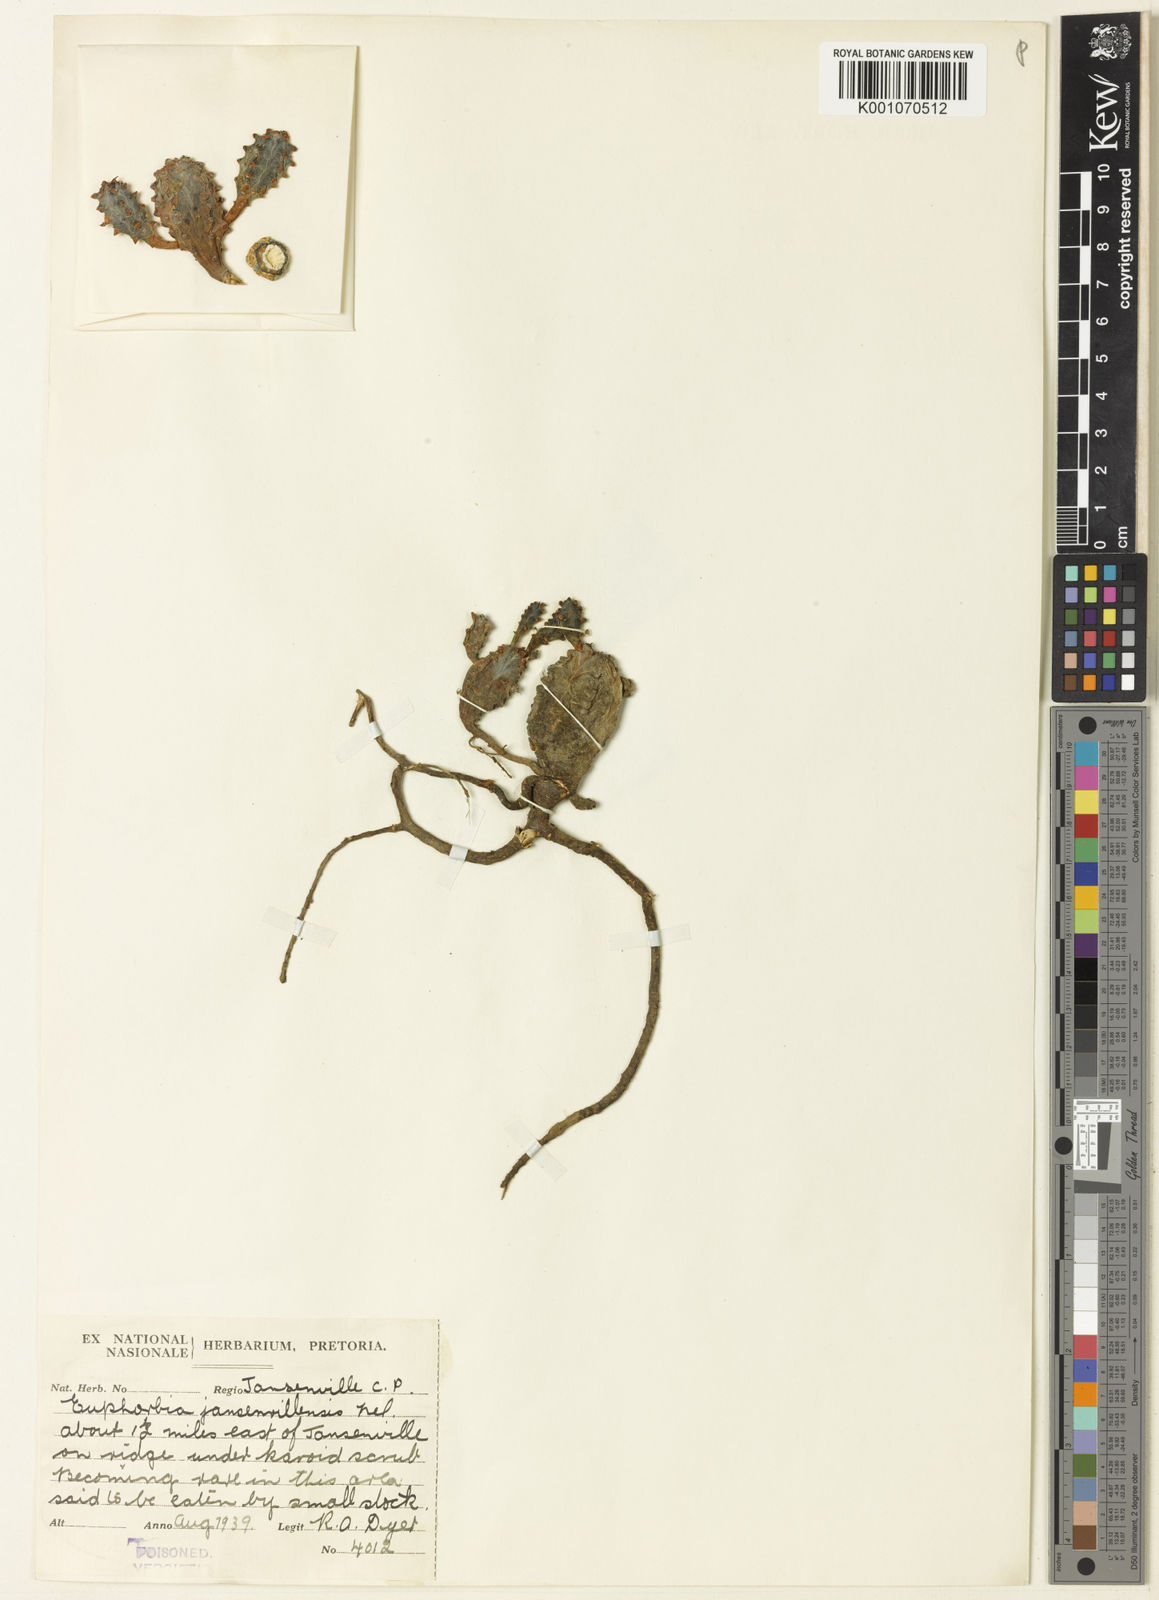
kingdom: Plantae
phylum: Tracheophyta
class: Magnoliopsida
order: Malpighiales
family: Euphorbiaceae
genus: Euphorbia
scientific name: Euphorbia jansenvillensis
